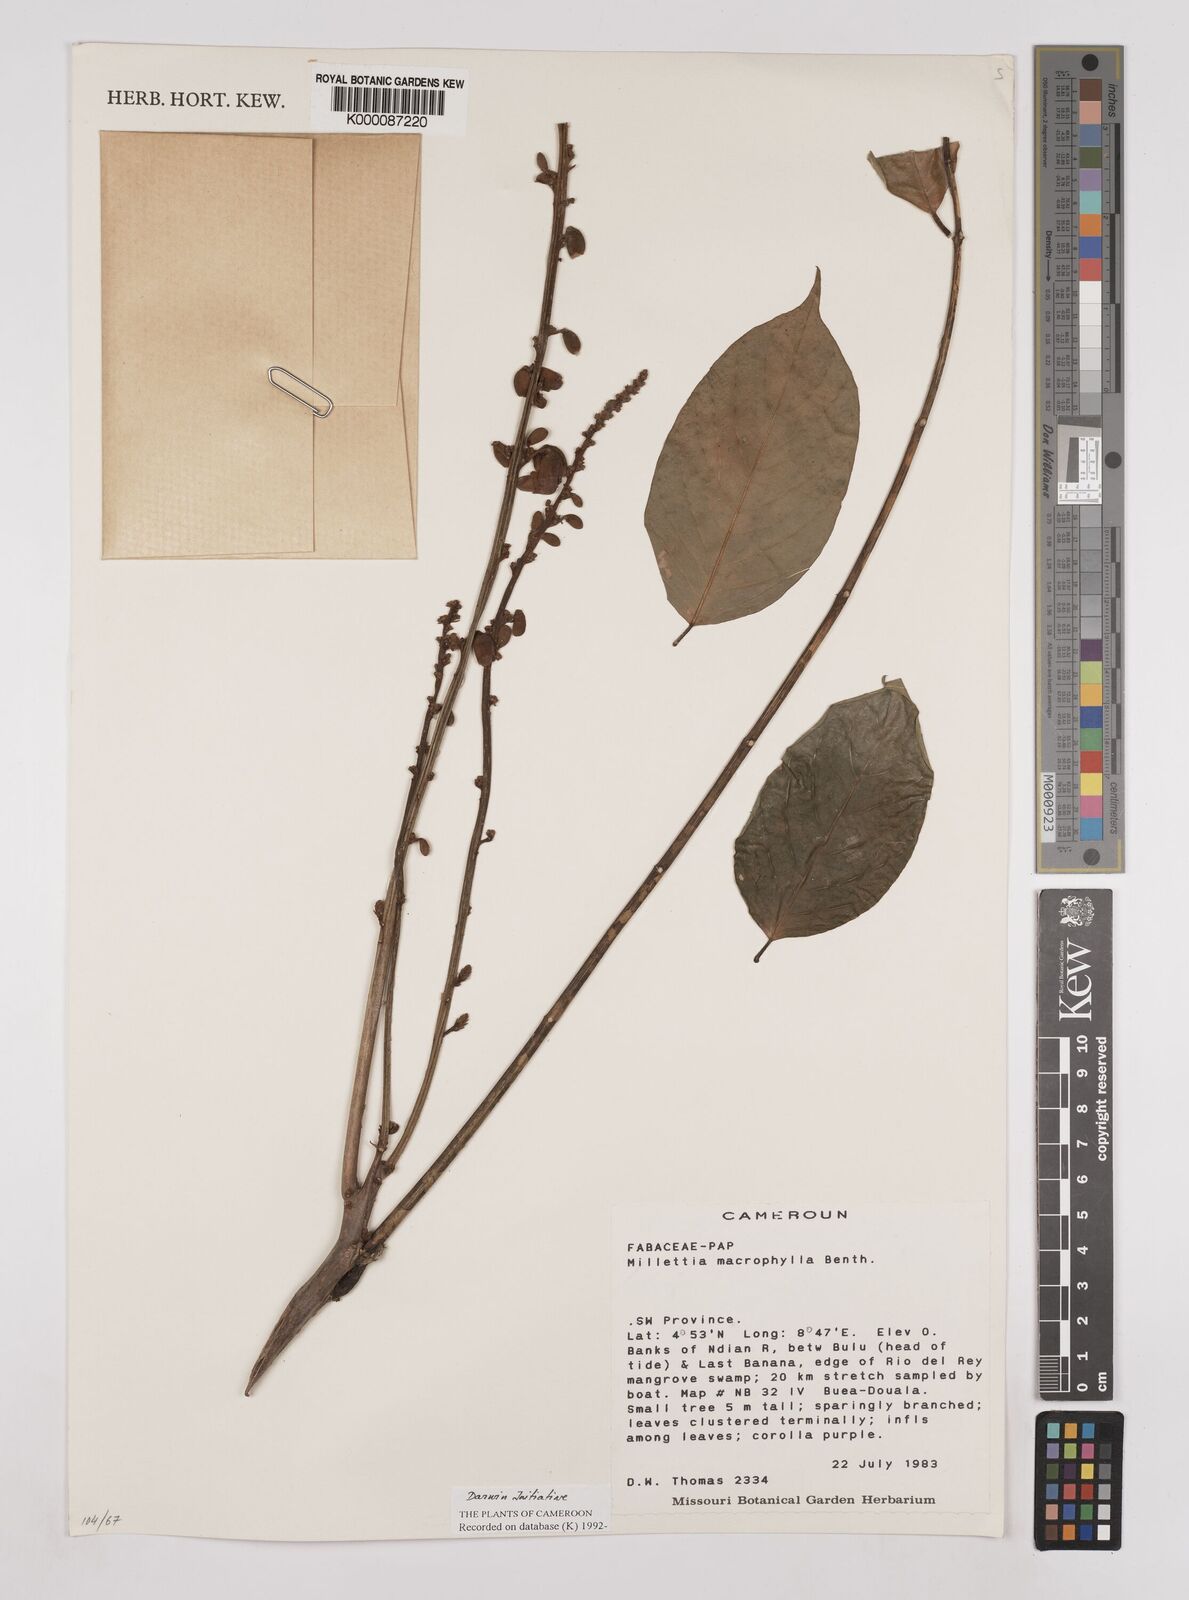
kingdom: Plantae
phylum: Tracheophyta
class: Magnoliopsida
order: Fabales
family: Fabaceae
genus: Millettia
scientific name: Millettia macrophylla
